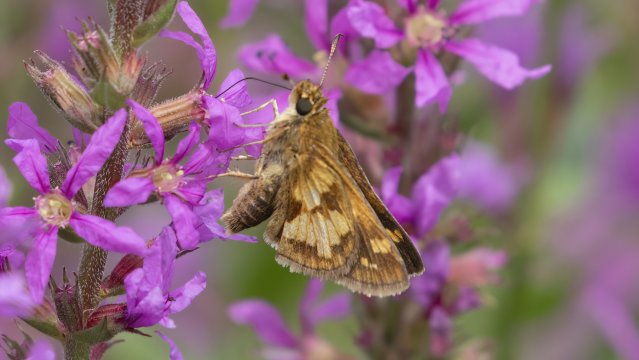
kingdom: Animalia
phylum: Arthropoda
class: Insecta
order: Lepidoptera
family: Hesperiidae
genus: Polites
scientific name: Polites coras
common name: Peck's Skipper
